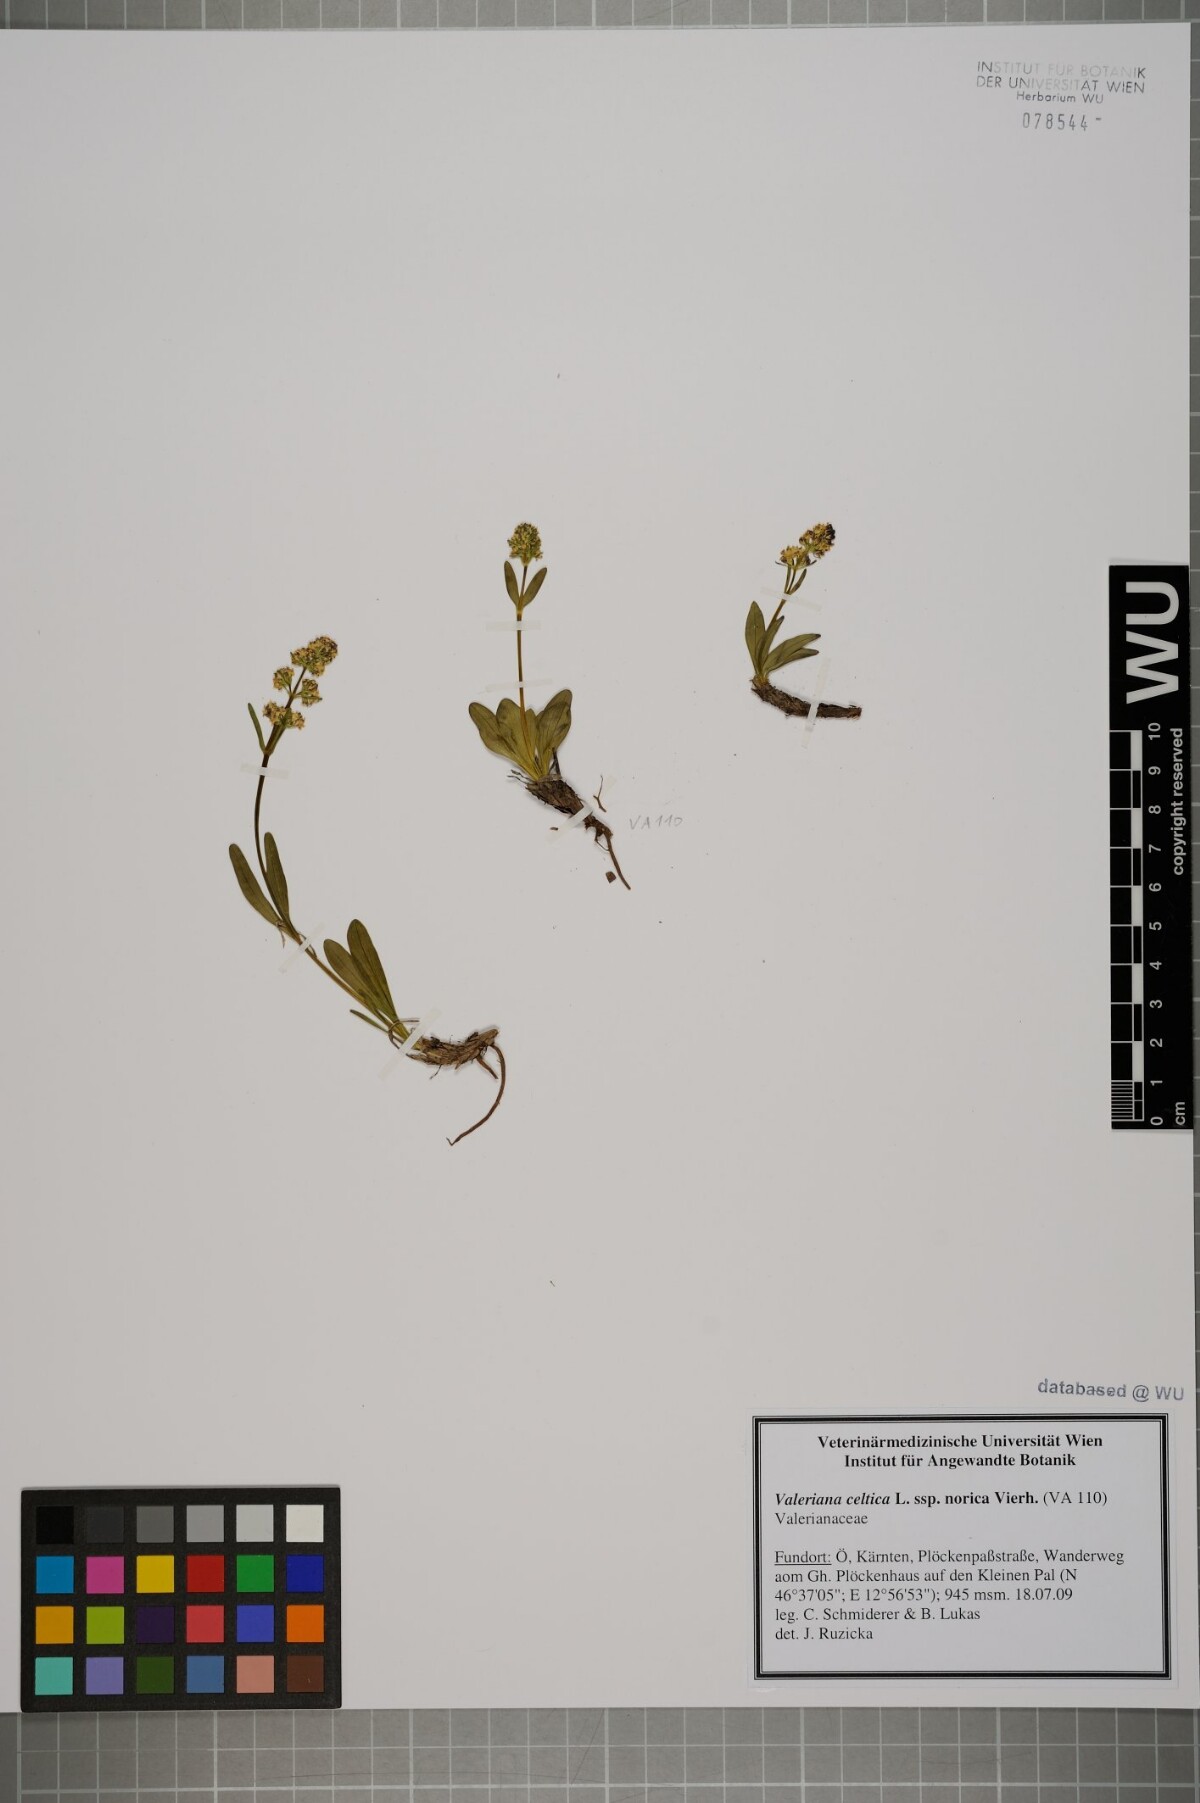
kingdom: Plantae
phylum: Tracheophyta
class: Magnoliopsida
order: Dipsacales
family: Caprifoliaceae
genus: Valeriana
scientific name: Valeriana celtica
